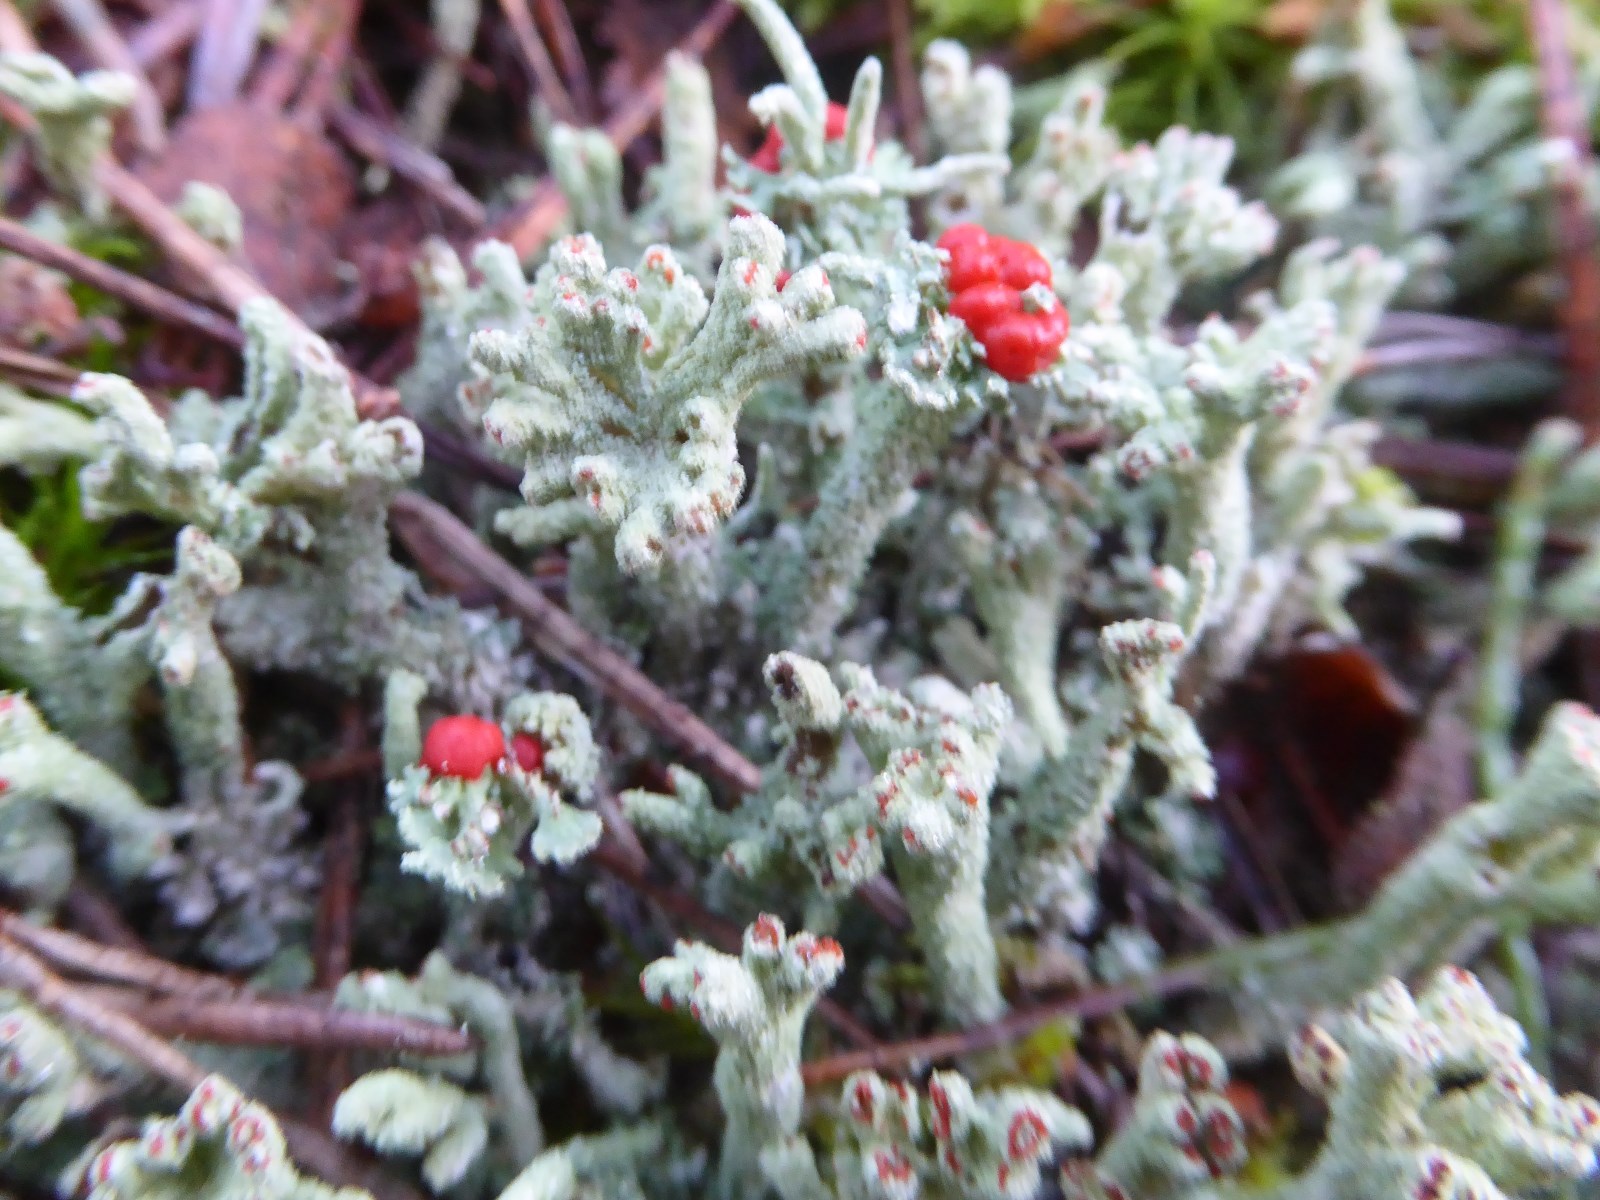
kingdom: Fungi
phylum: Ascomycota
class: Lecanoromycetes
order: Lecanorales
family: Cladoniaceae
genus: Cladonia
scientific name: Cladonia polydactyla
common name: vifte-bægerlav
